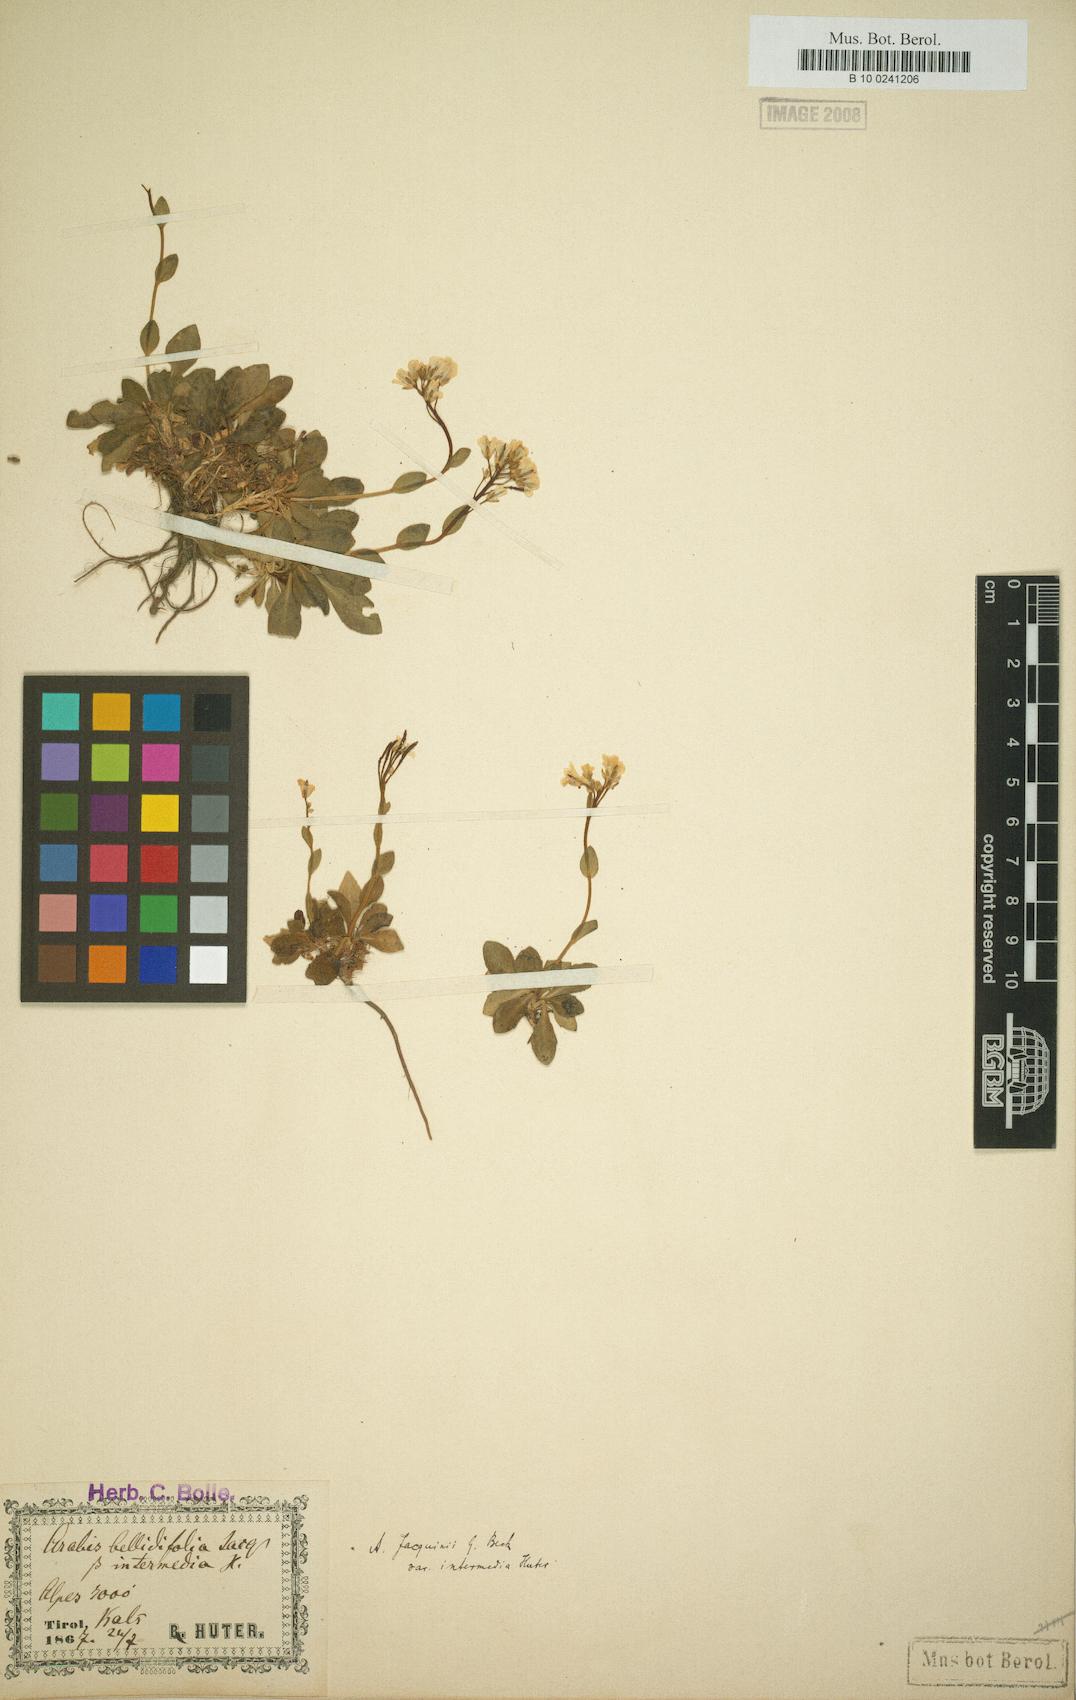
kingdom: Plantae
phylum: Tracheophyta
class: Magnoliopsida
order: Brassicales
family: Brassicaceae
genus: Arabis
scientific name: Arabis soyeri
